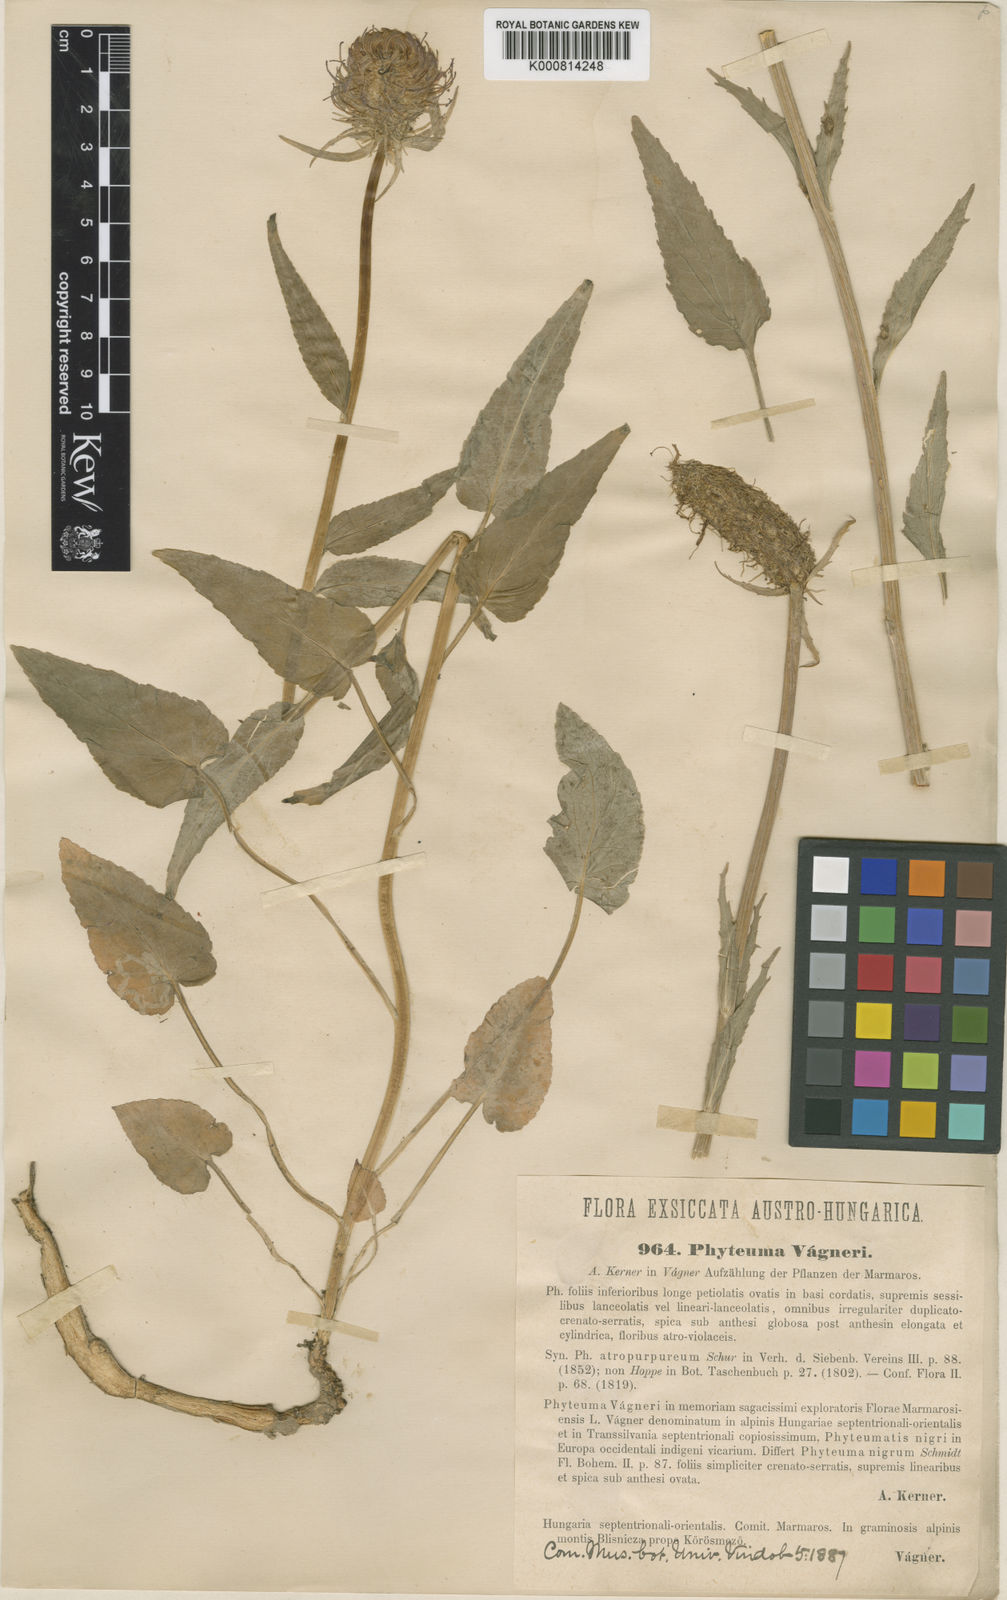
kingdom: Plantae
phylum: Tracheophyta
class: Magnoliopsida
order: Asterales
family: Campanulaceae
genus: Phyteuma
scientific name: Phyteuma vagneri
